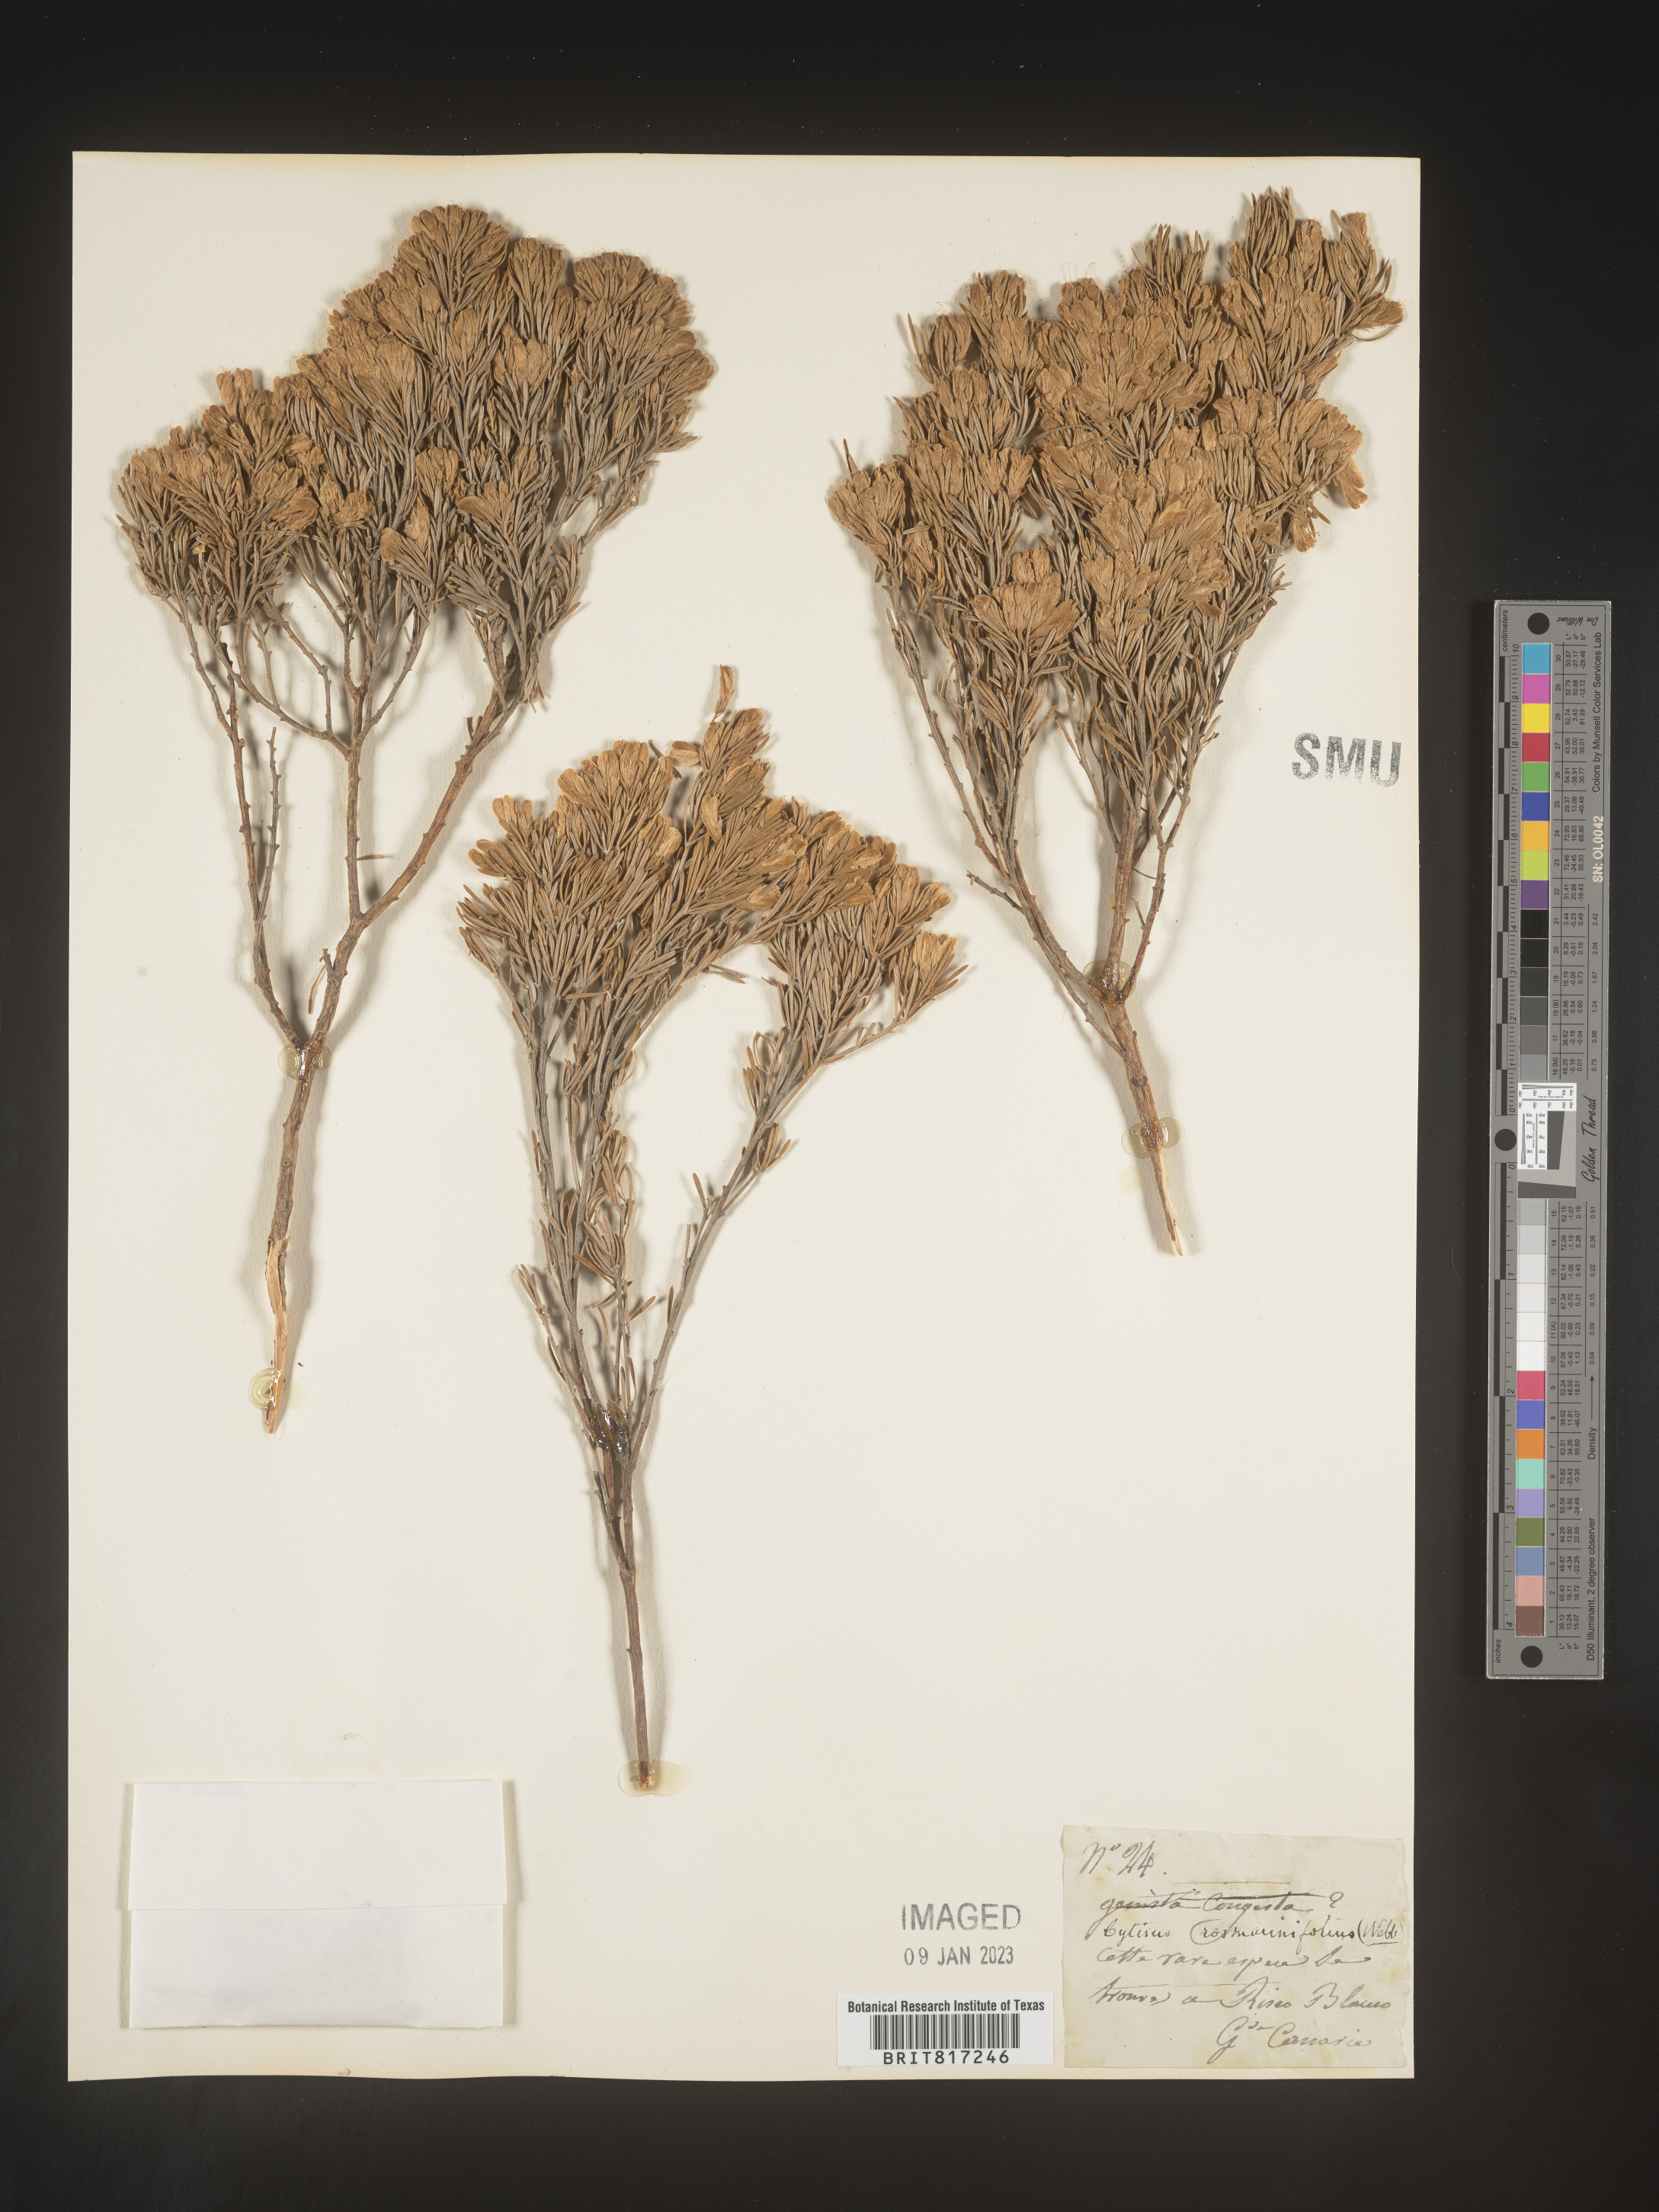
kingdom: Plantae
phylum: Tracheophyta
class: Magnoliopsida
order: Fabales
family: Fabaceae
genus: Cytisus
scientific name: Cytisus
